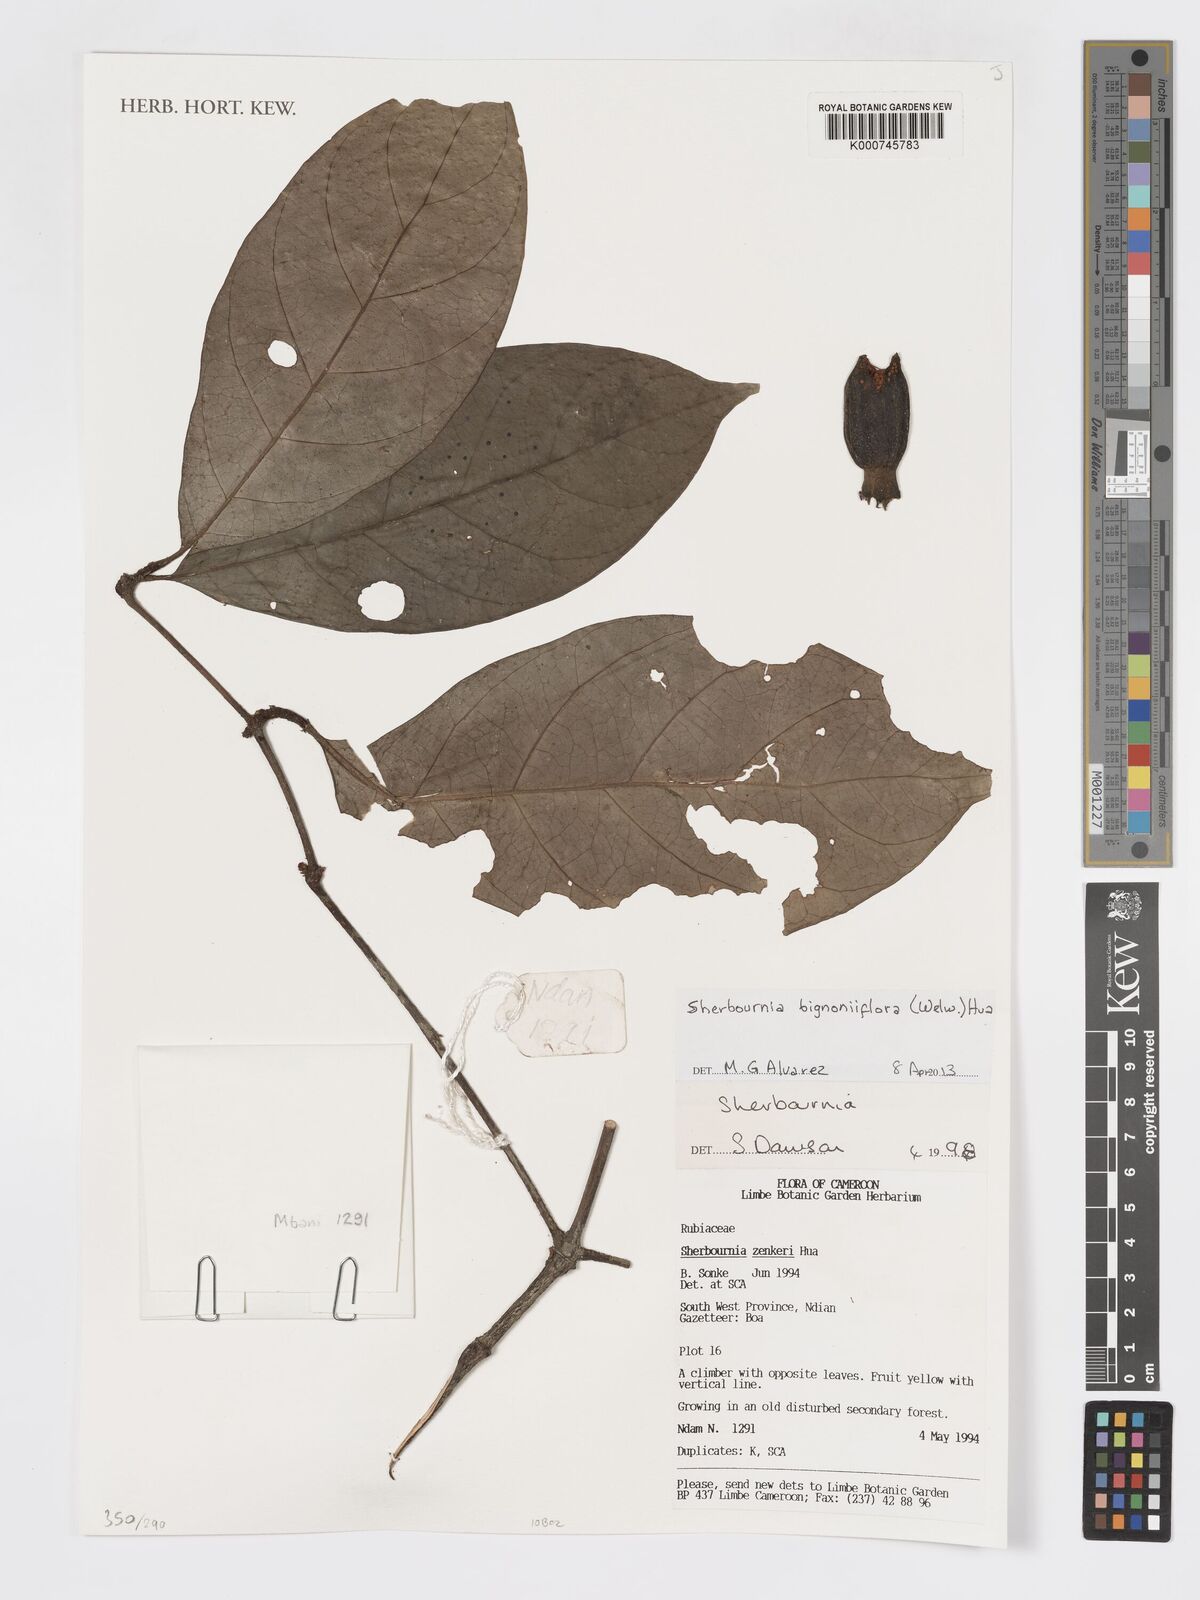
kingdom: Plantae
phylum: Tracheophyta
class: Magnoliopsida
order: Gentianales
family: Rubiaceae
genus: Sherbournia
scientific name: Sherbournia bignoniiflora
